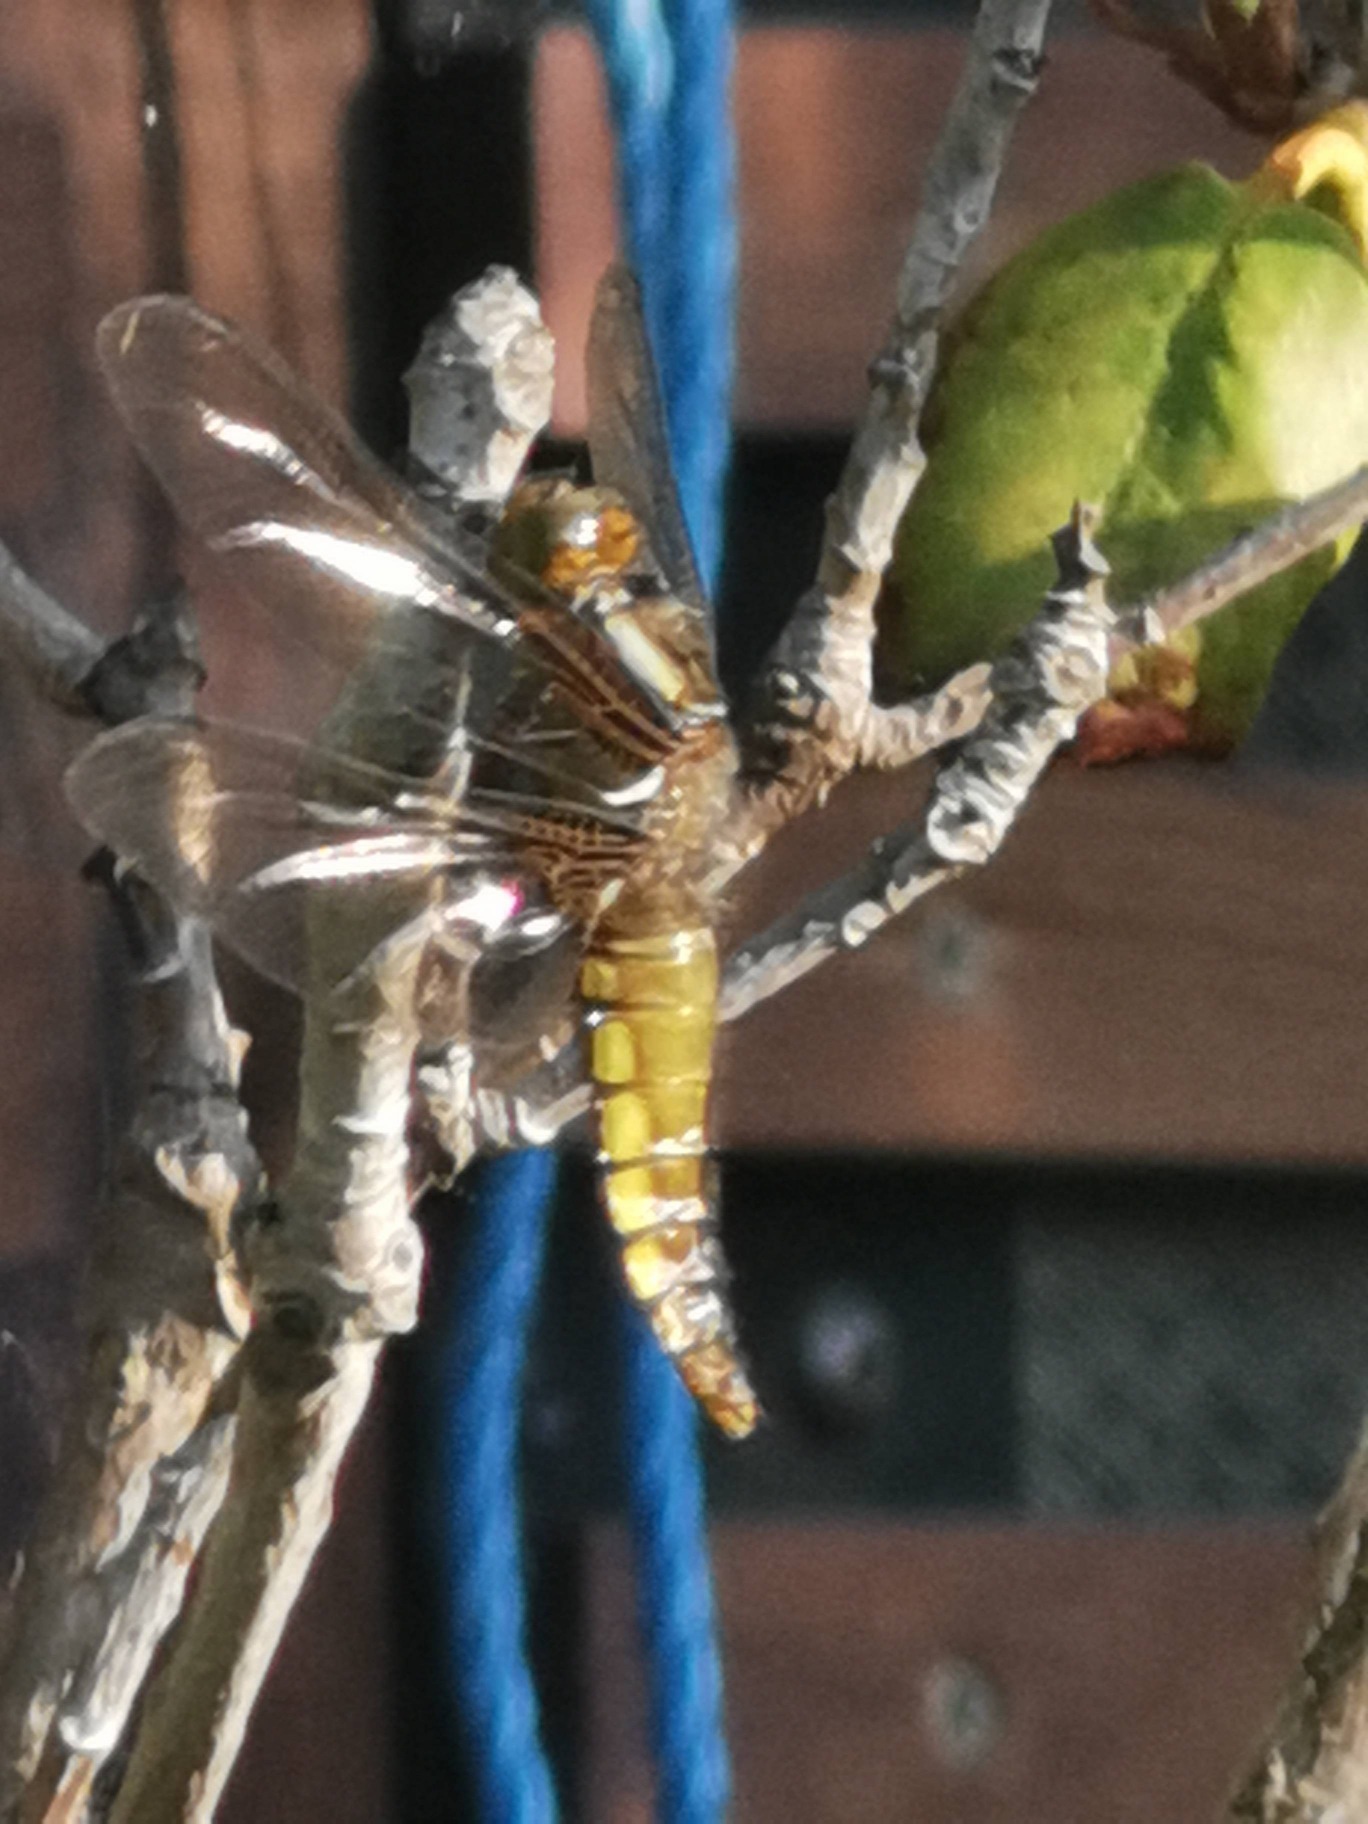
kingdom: Animalia
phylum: Arthropoda
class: Insecta
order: Odonata
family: Libellulidae
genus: Libellula
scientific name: Libellula depressa
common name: Blå libel
